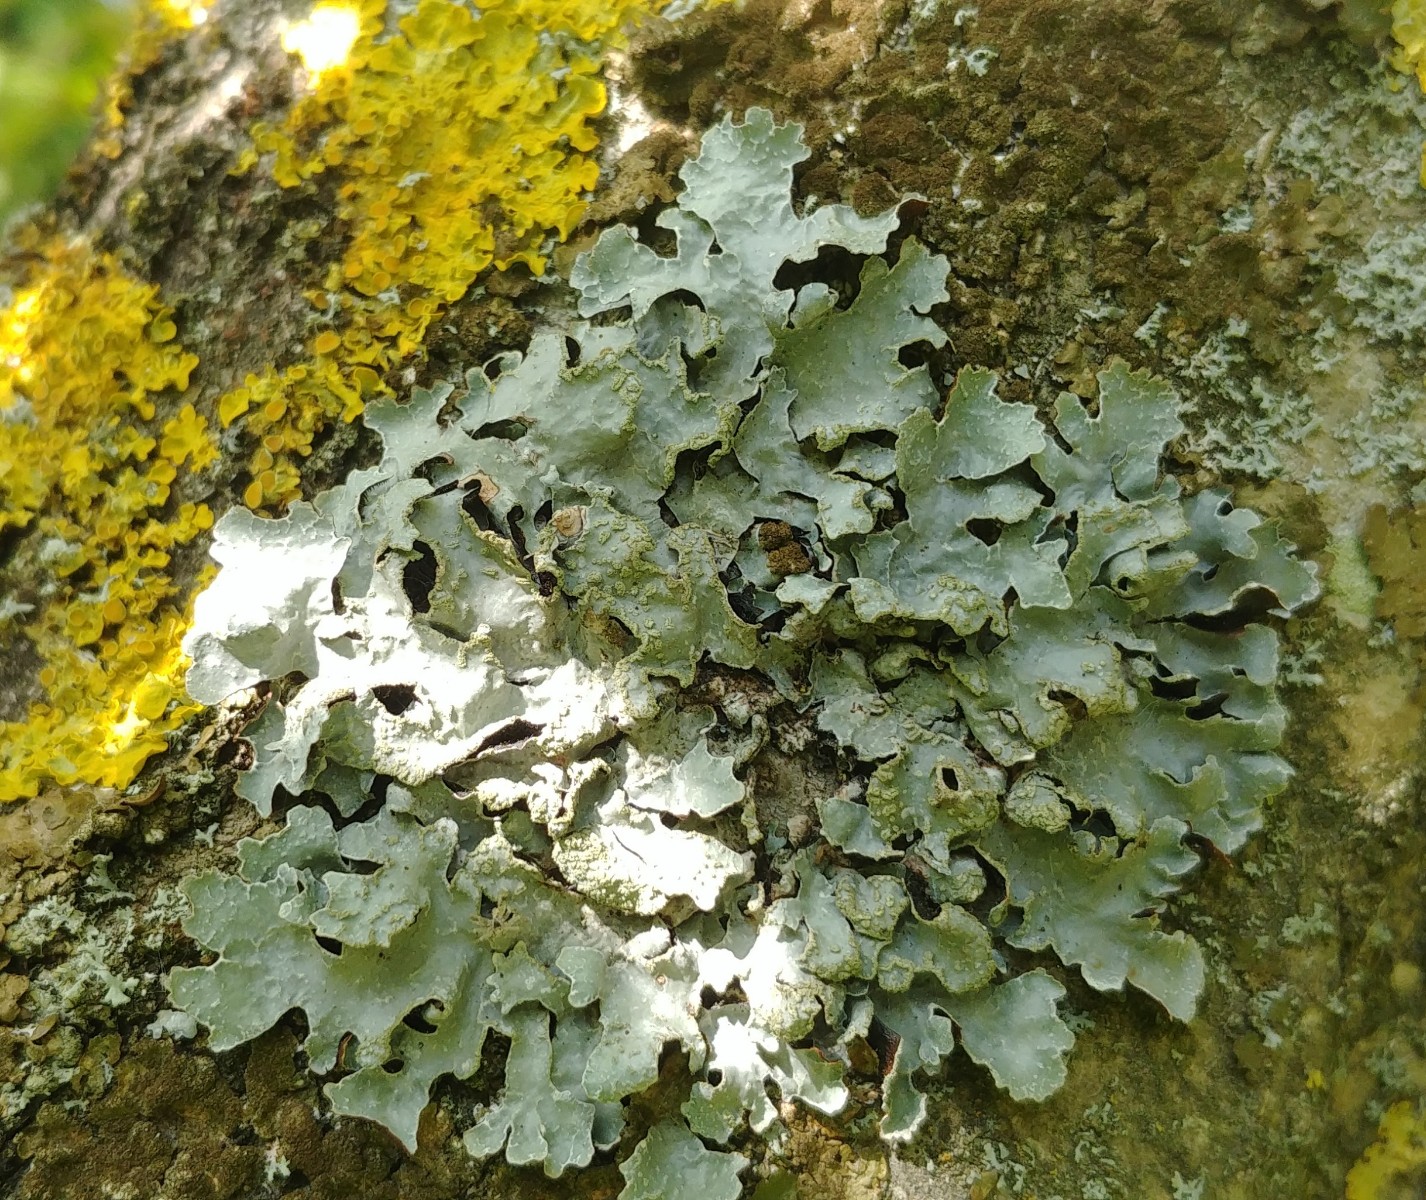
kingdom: Fungi
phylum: Ascomycota
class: Lecanoromycetes
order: Lecanorales
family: Parmeliaceae
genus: Parmelia
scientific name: Parmelia sulcata
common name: rynket skållav
